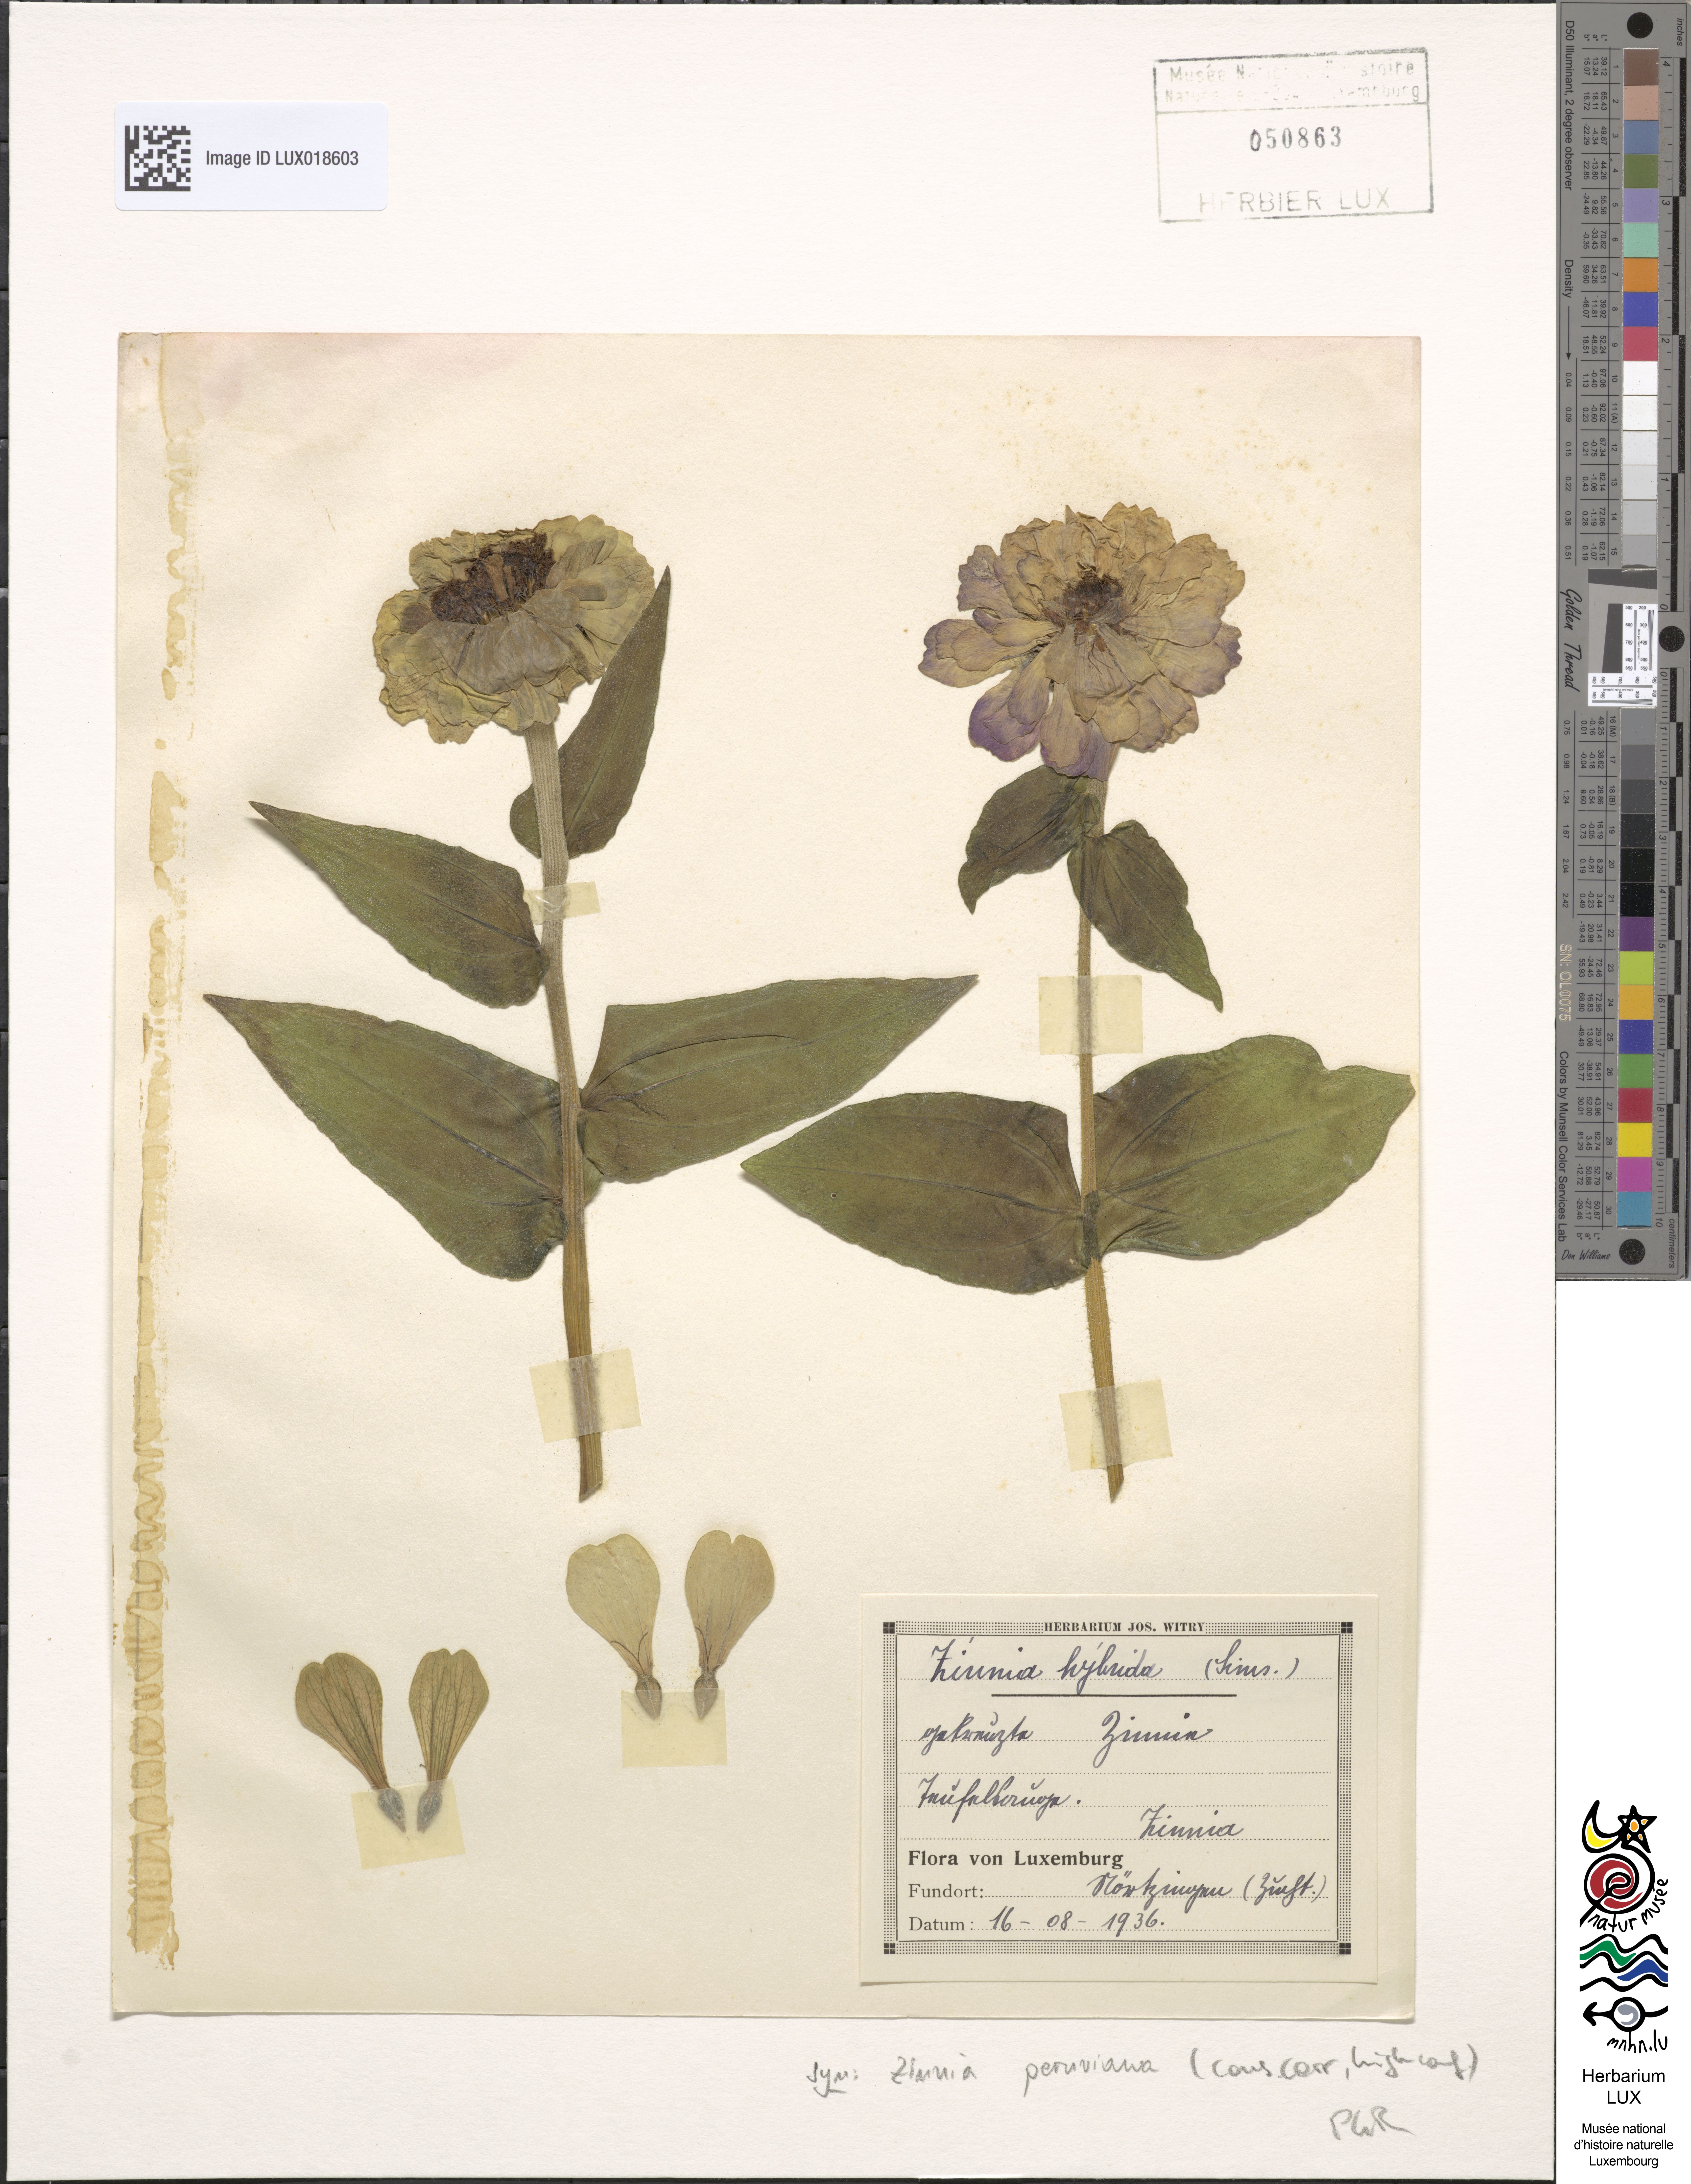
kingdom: Plantae
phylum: Tracheophyta
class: Magnoliopsida
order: Asterales
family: Asteraceae
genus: Zinnia
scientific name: Zinnia peruviana
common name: Peruvian zinnia
